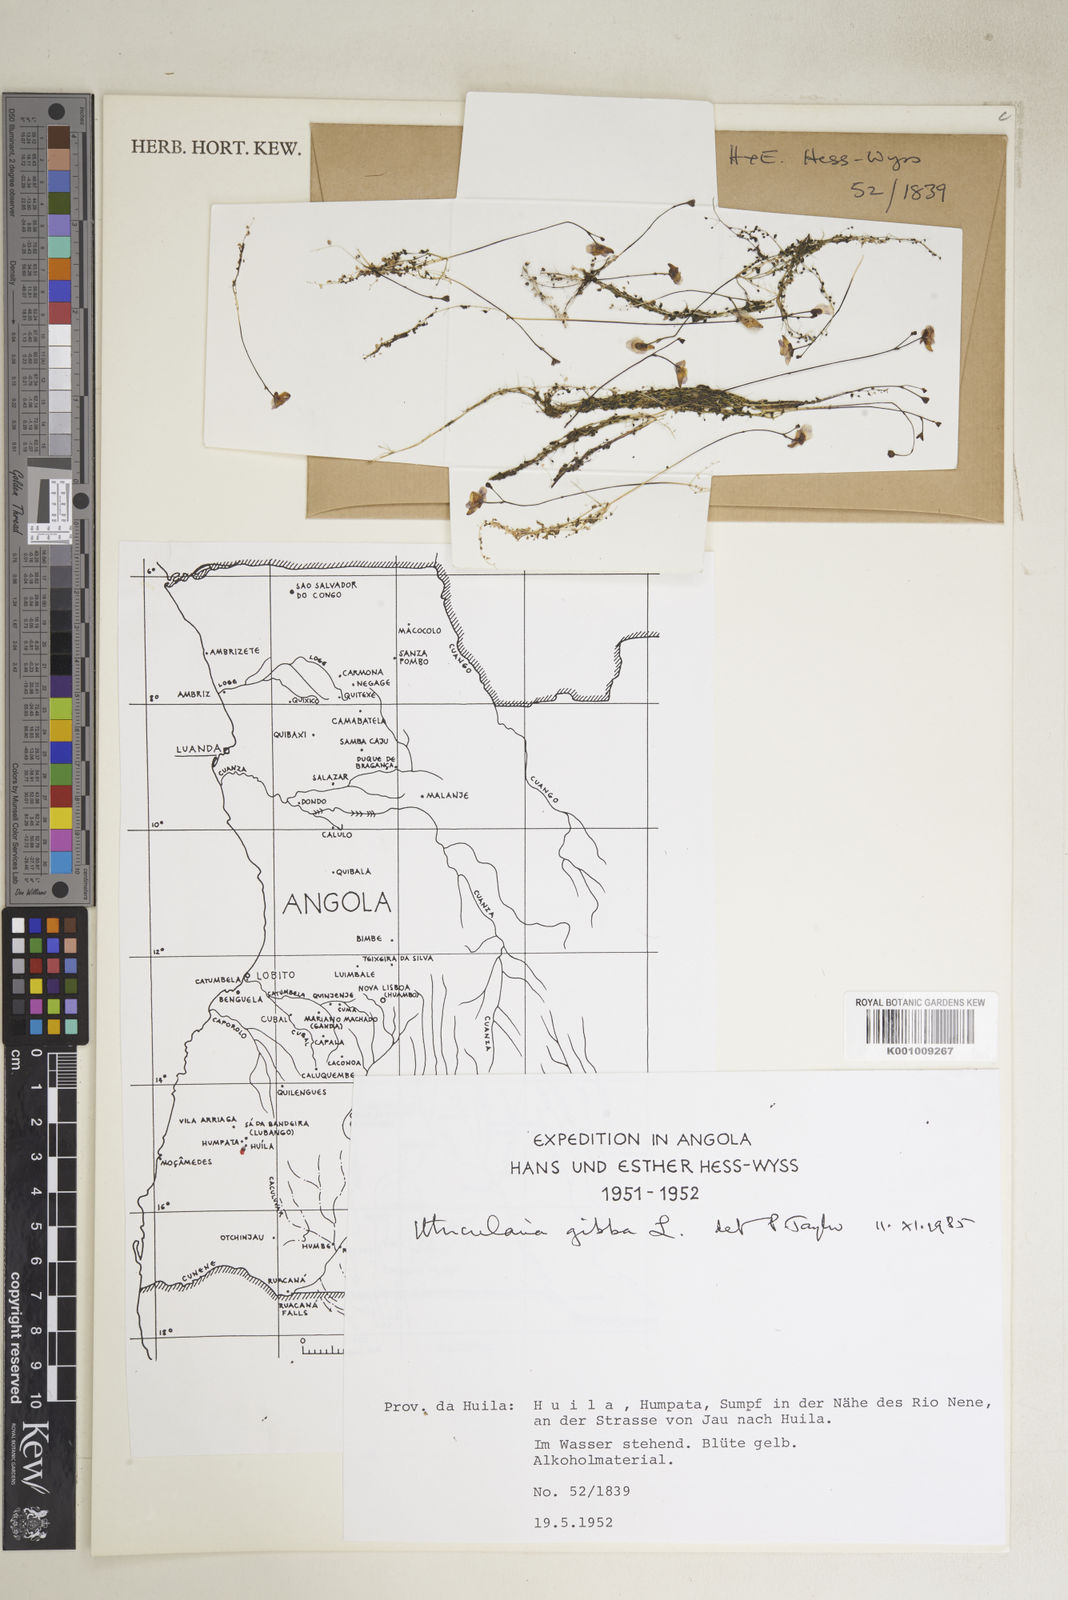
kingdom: Plantae
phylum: Tracheophyta
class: Magnoliopsida
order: Lamiales
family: Lentibulariaceae
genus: Utricularia
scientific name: Utricularia gibba
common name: Humped bladderwort
